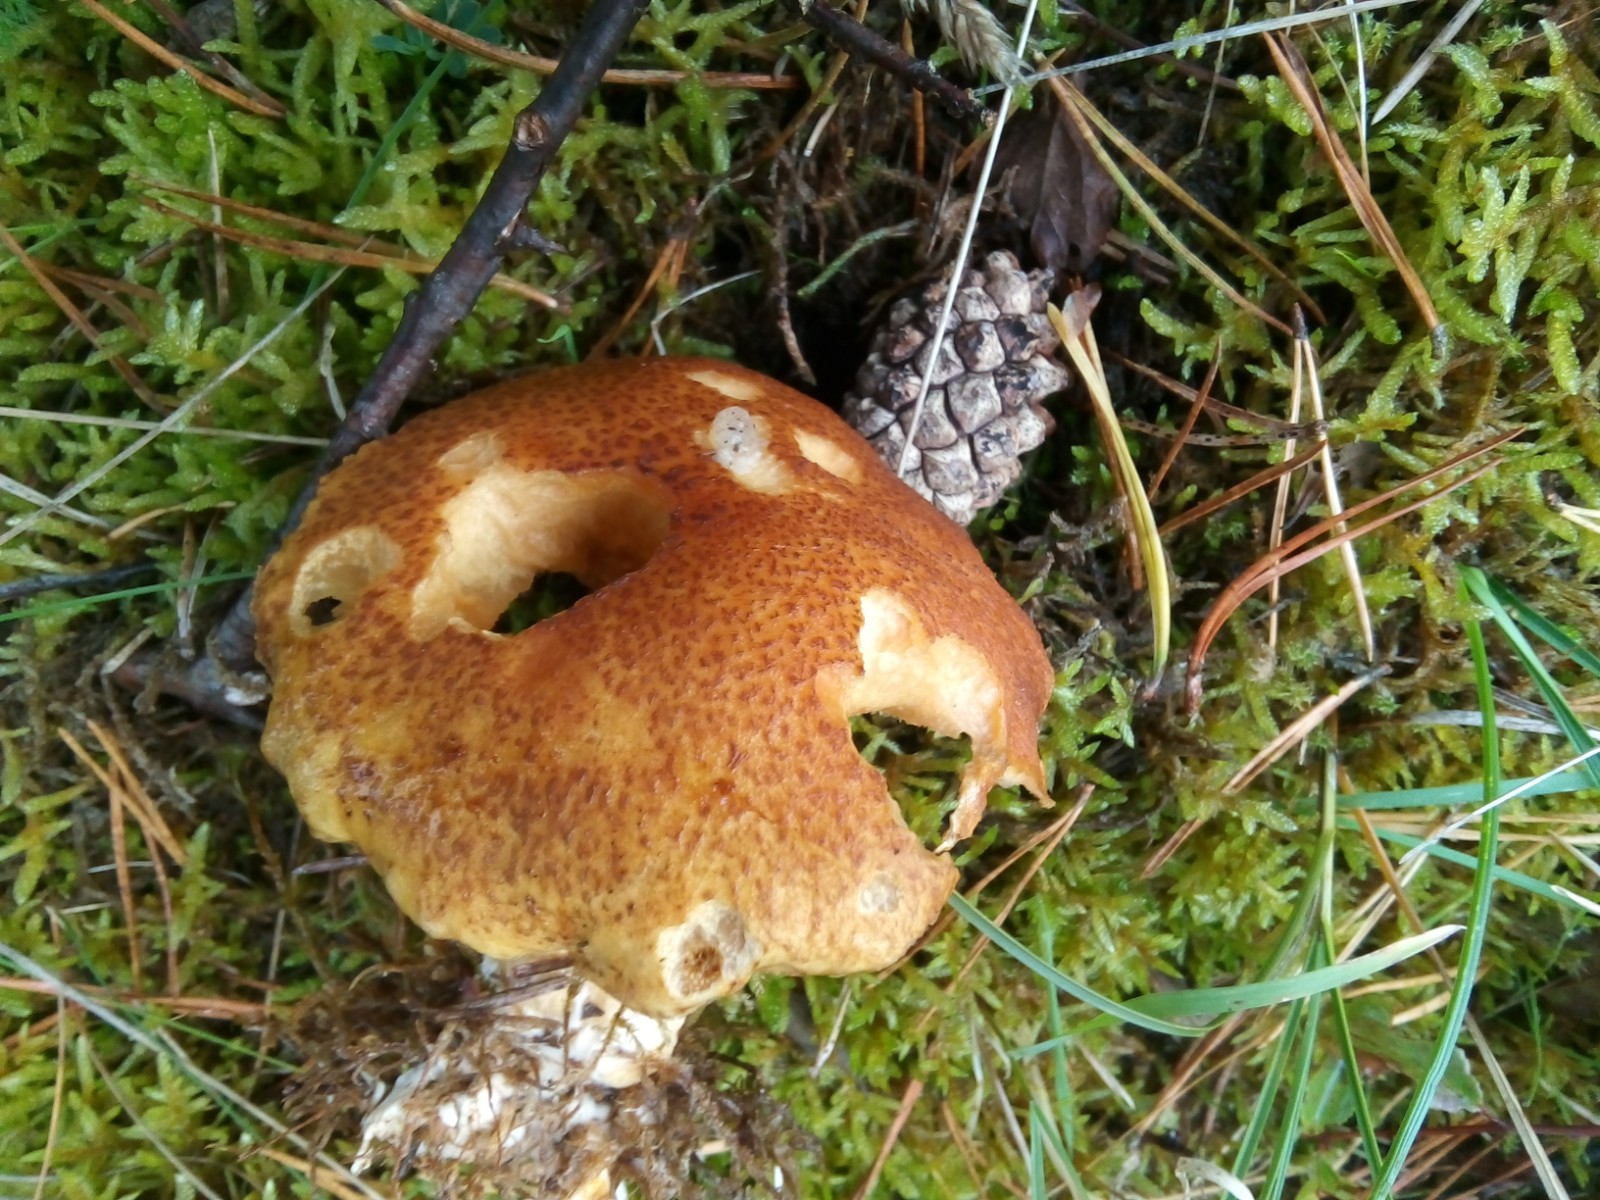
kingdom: Fungi
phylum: Basidiomycota
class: Agaricomycetes
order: Boletales
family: Suillaceae
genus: Suillus
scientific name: Suillus variegatus
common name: broget slimrørhat
